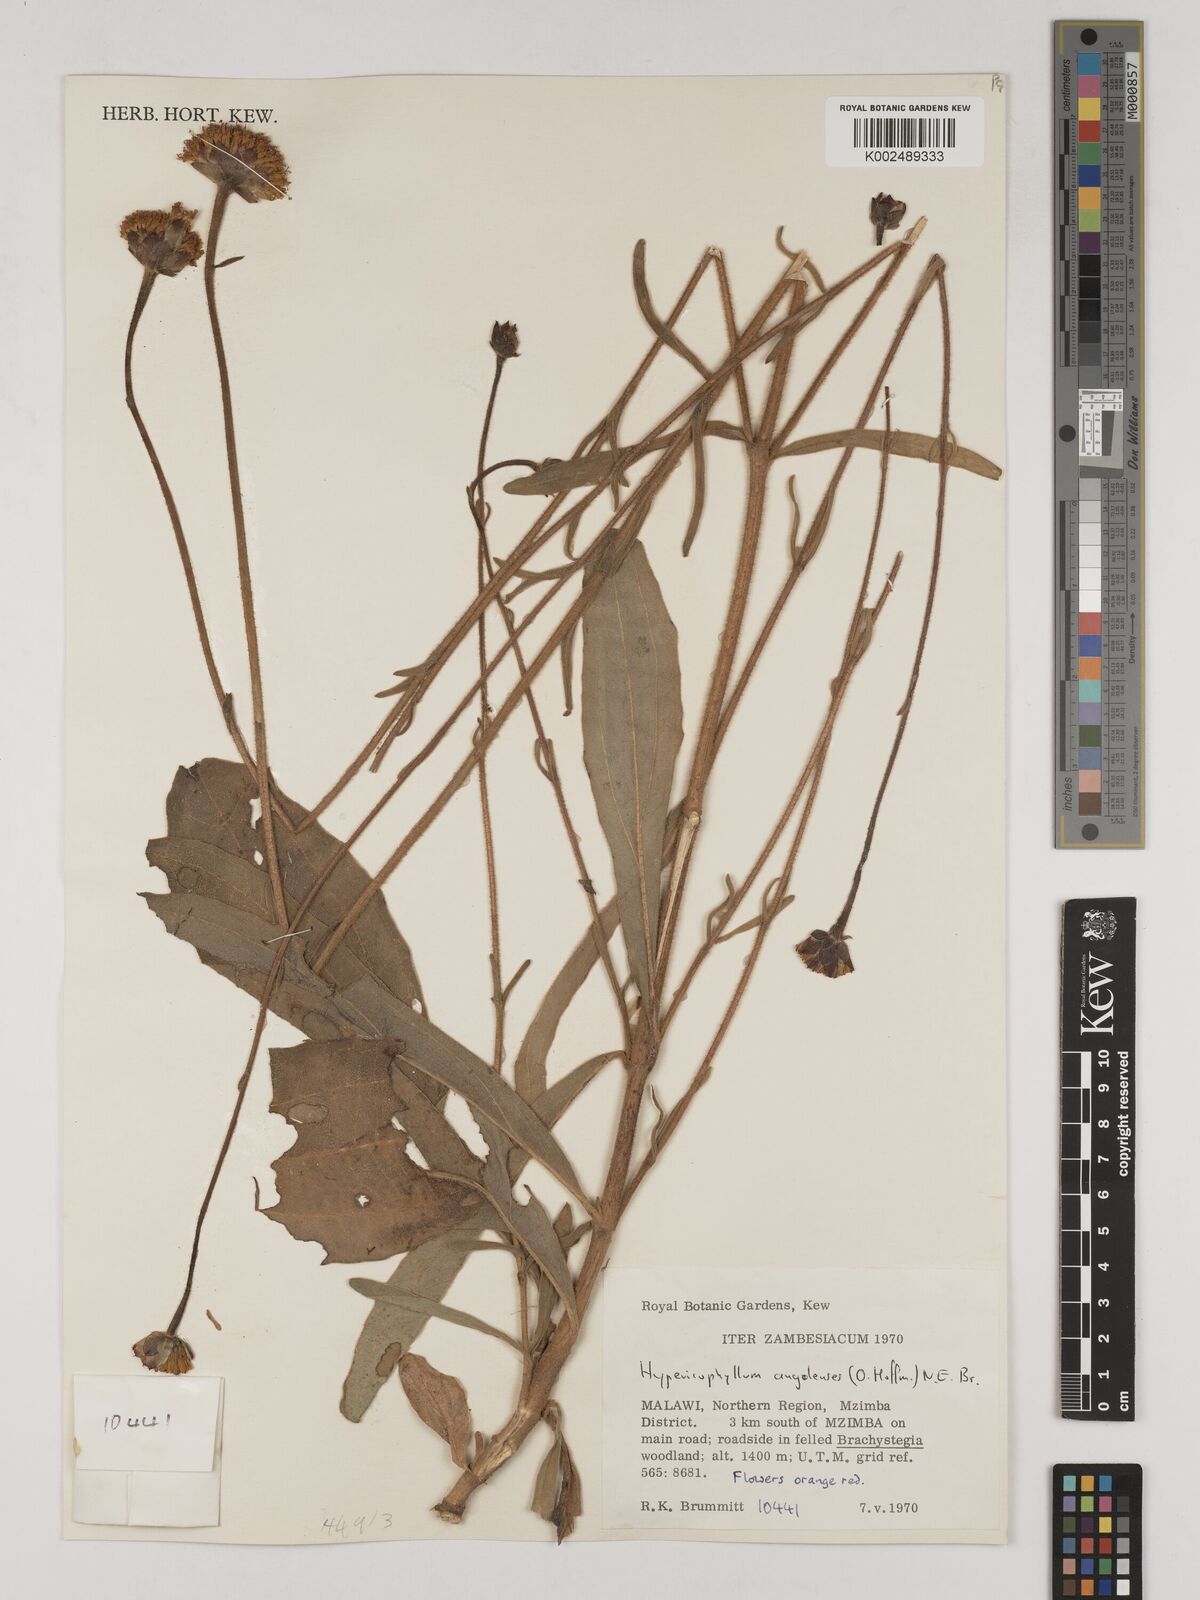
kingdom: Plantae
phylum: Tracheophyta
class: Magnoliopsida
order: Asterales
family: Asteraceae
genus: Hypericophyllum
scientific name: Hypericophyllum angolense
